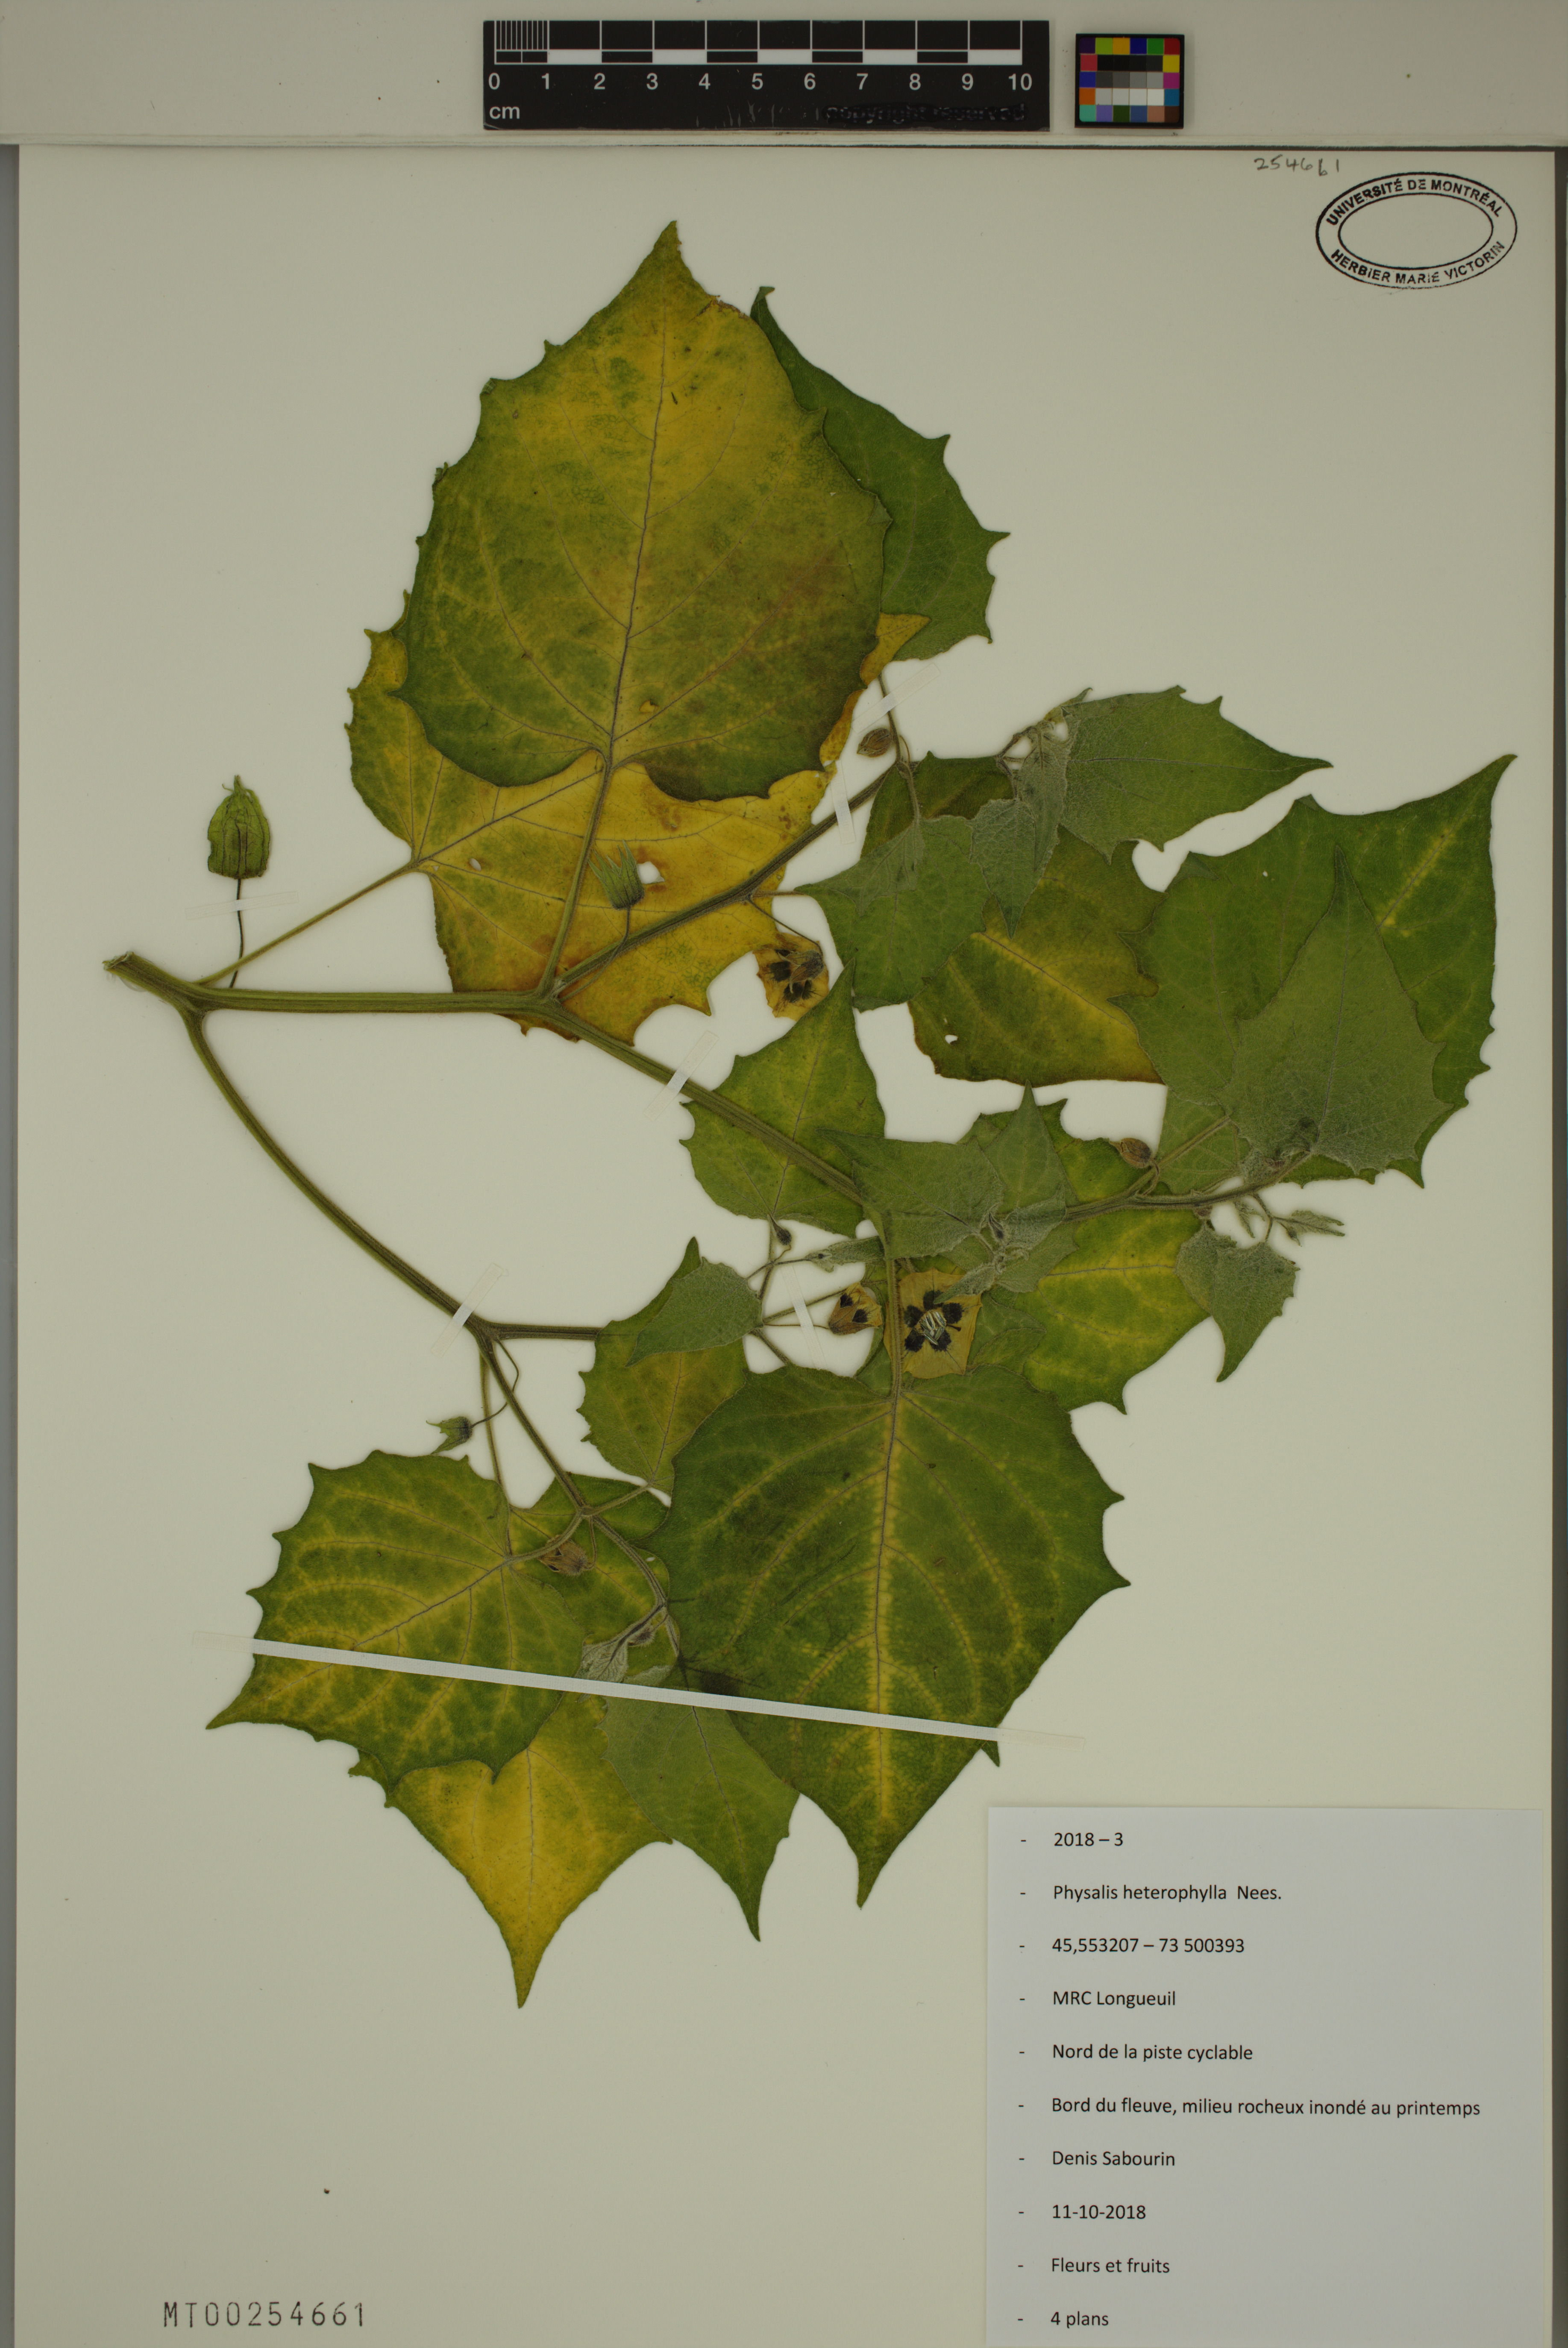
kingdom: Plantae
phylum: Tracheophyta
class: Magnoliopsida
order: Solanales
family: Solanaceae
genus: Physalis
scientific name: Physalis heterophylla
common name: Clammy ground-cherry
